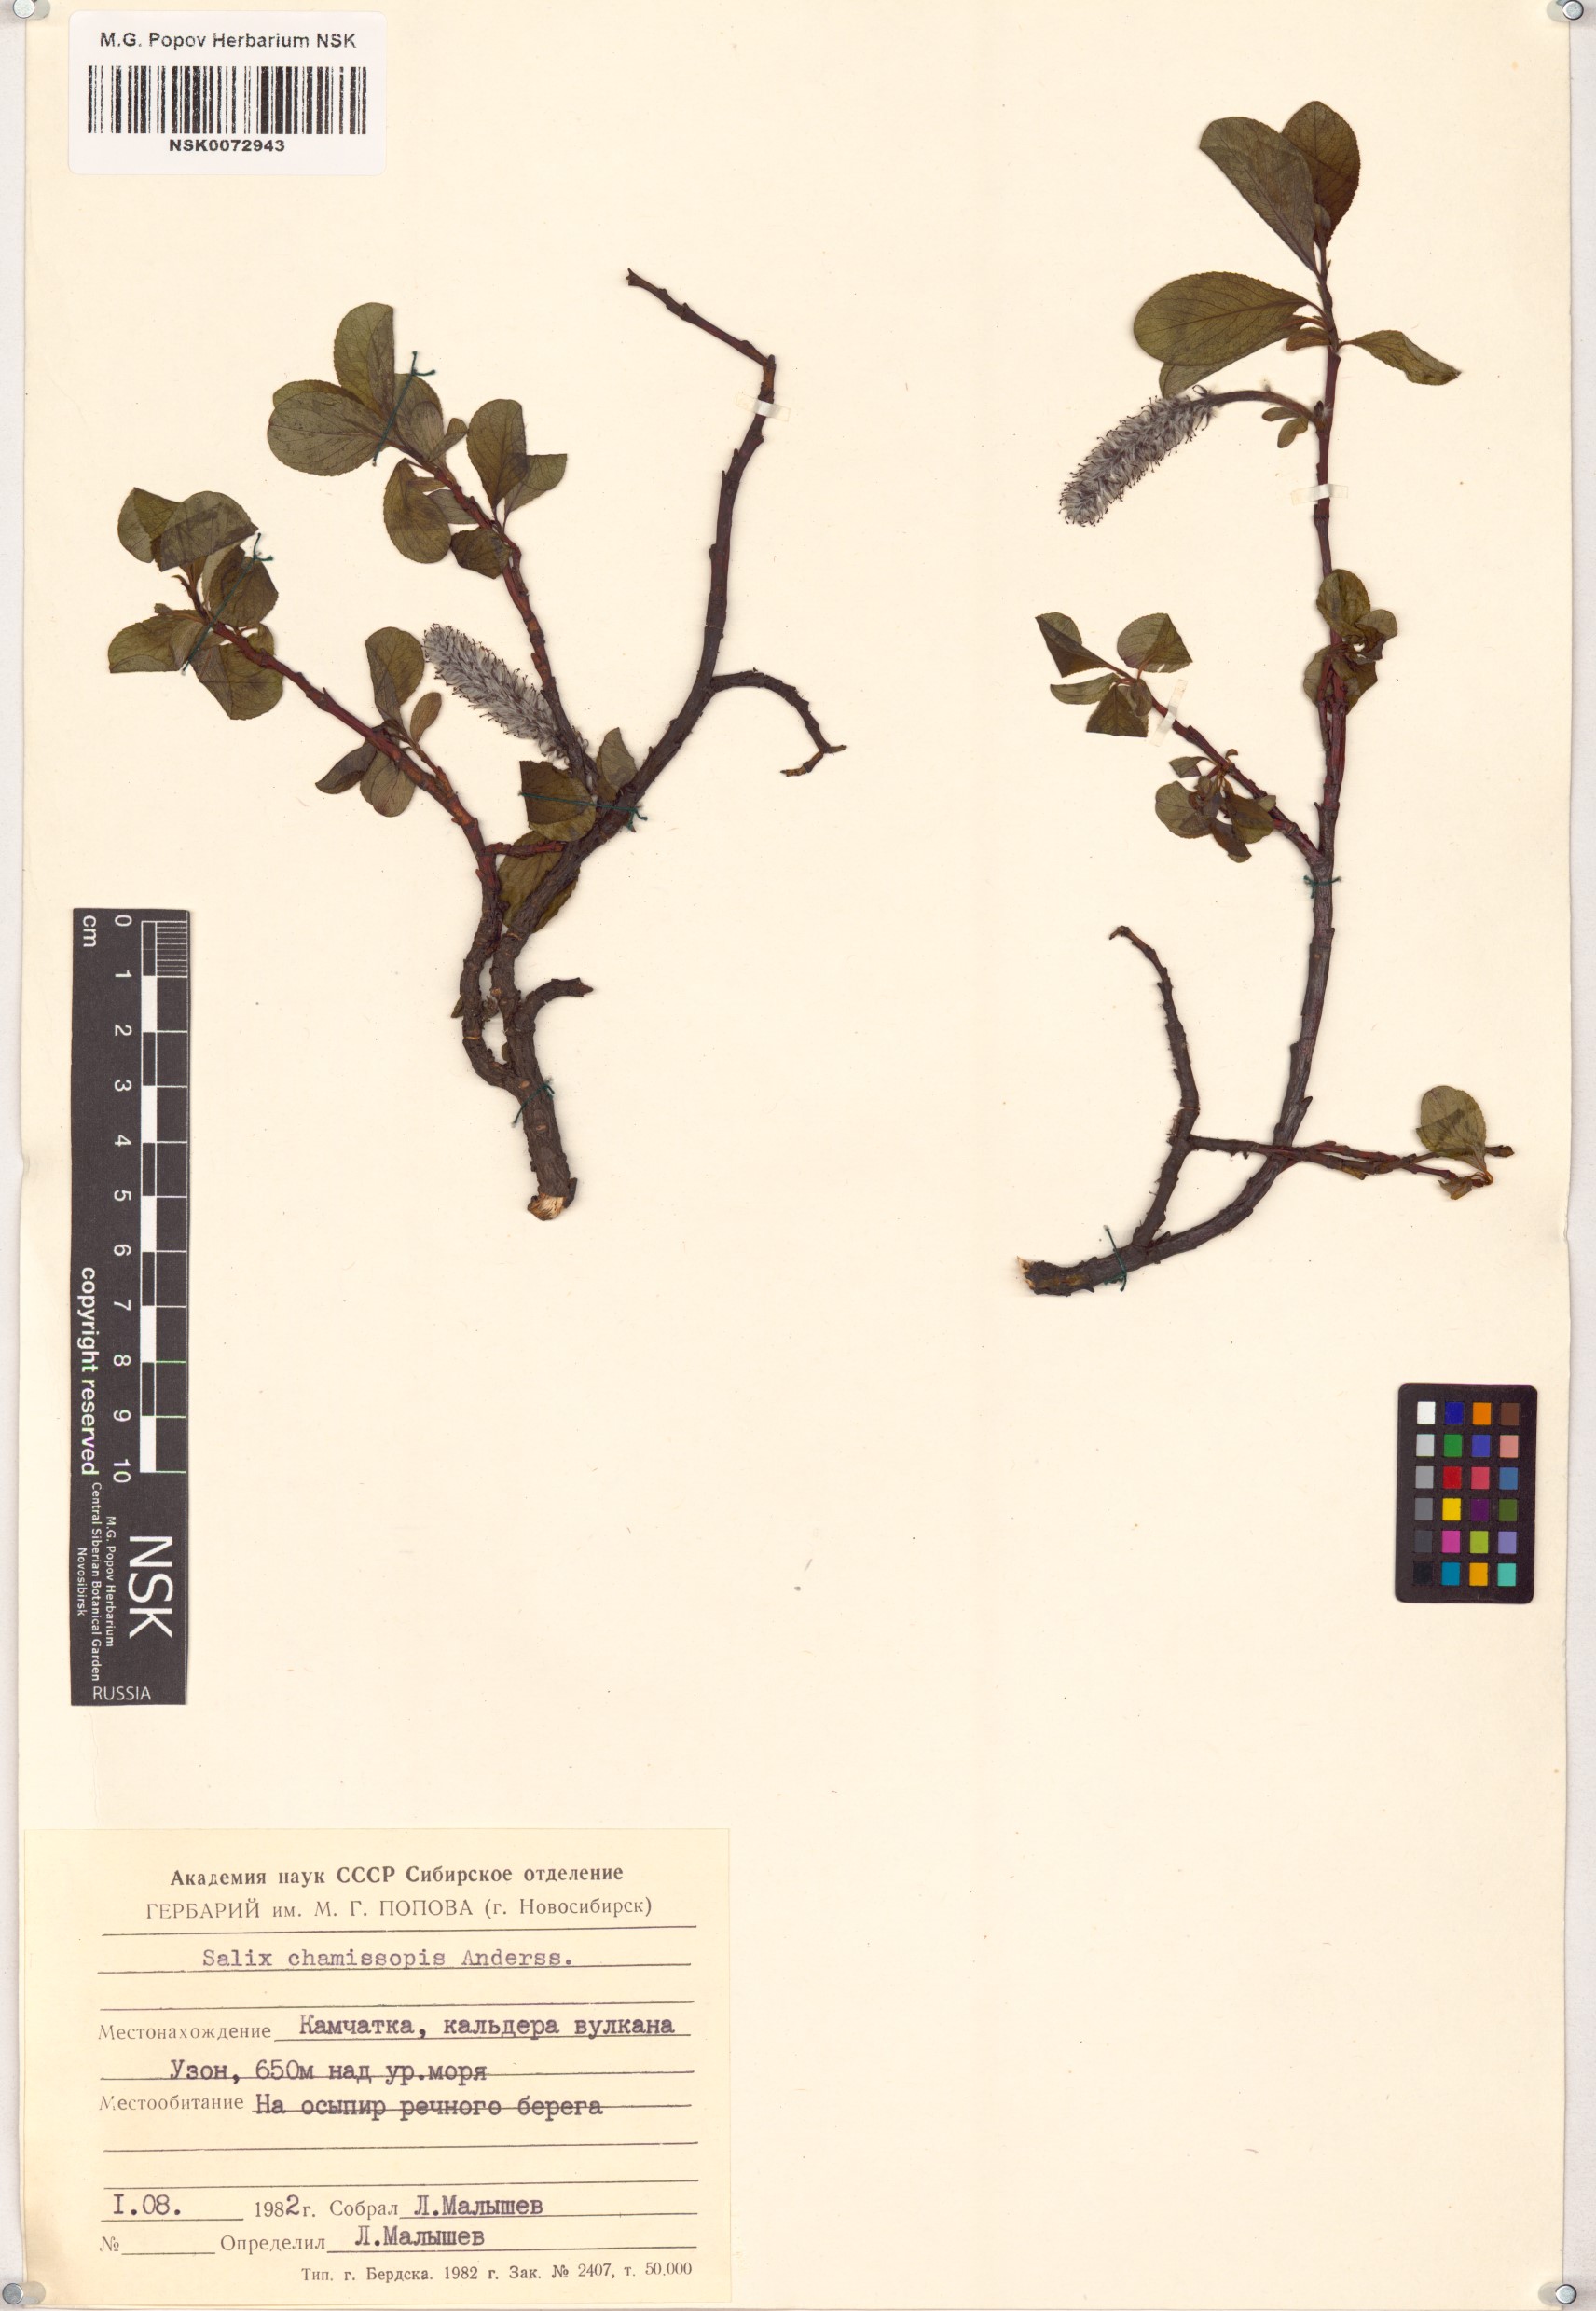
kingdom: Plantae
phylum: Tracheophyta
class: Magnoliopsida
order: Malpighiales
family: Salicaceae
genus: Salix
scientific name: Salix chamissonis
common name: Chamisso willow
